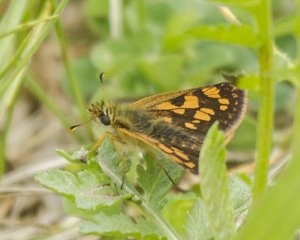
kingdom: Animalia
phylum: Arthropoda
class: Insecta
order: Lepidoptera
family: Hesperiidae
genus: Carterocephalus
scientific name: Carterocephalus palaemon
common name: Chequered Skipper
